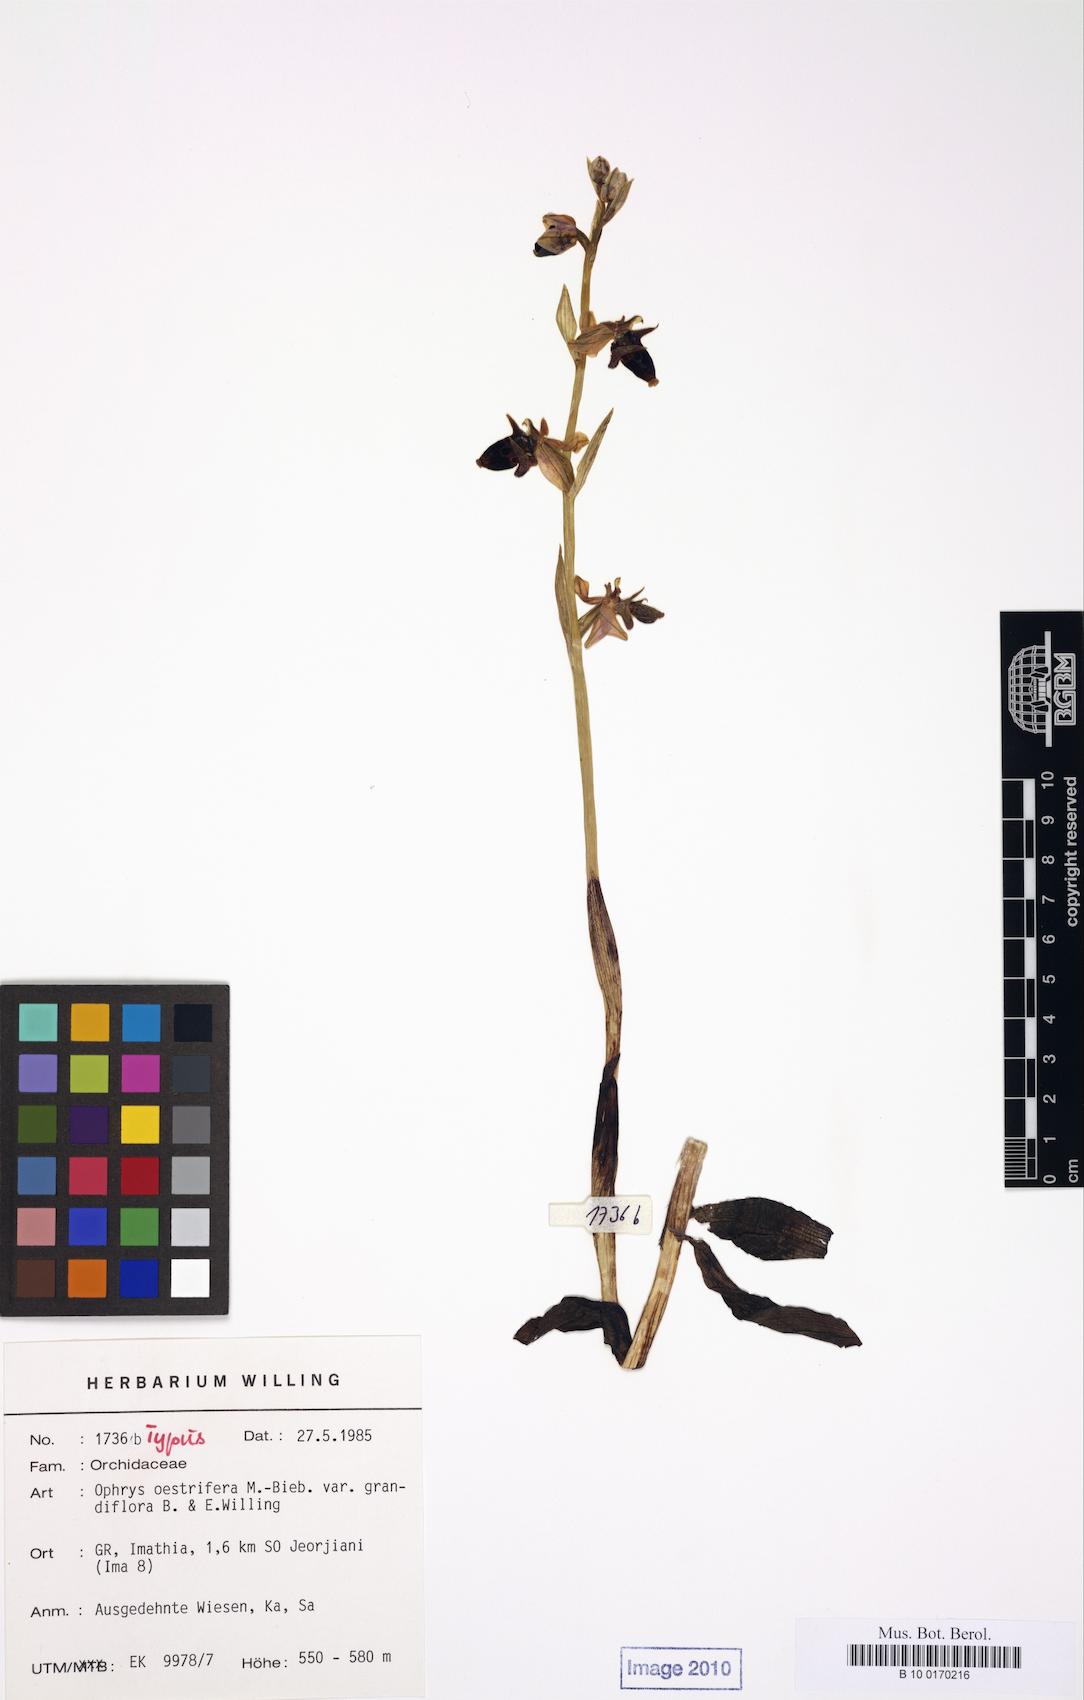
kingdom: Plantae
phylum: Tracheophyta
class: Liliopsida
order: Asparagales
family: Orchidaceae
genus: Ophrys
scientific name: Ophrys scolopax
